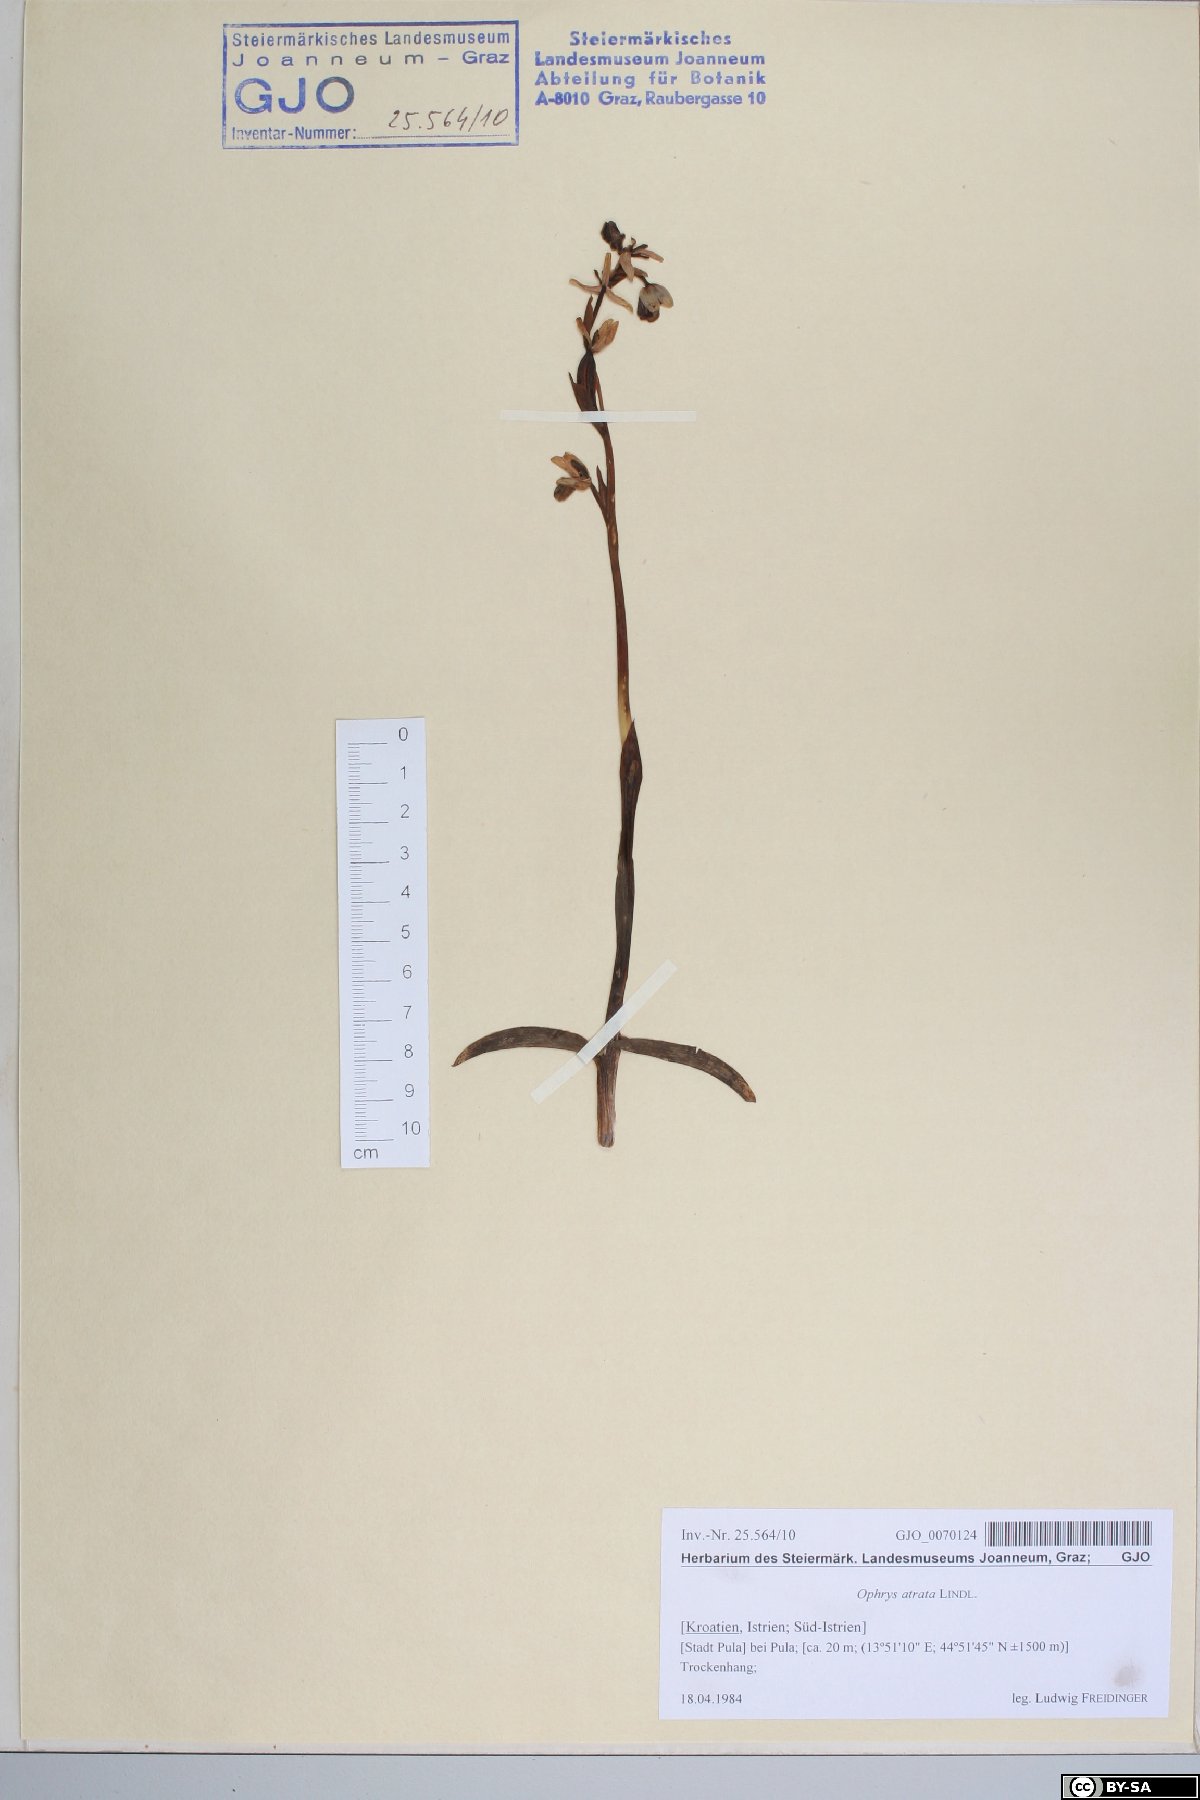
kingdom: Plantae
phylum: Tracheophyta
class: Liliopsida
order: Asparagales
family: Orchidaceae
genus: Ophrys
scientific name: Ophrys sphegodes
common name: Early spider-orchid
